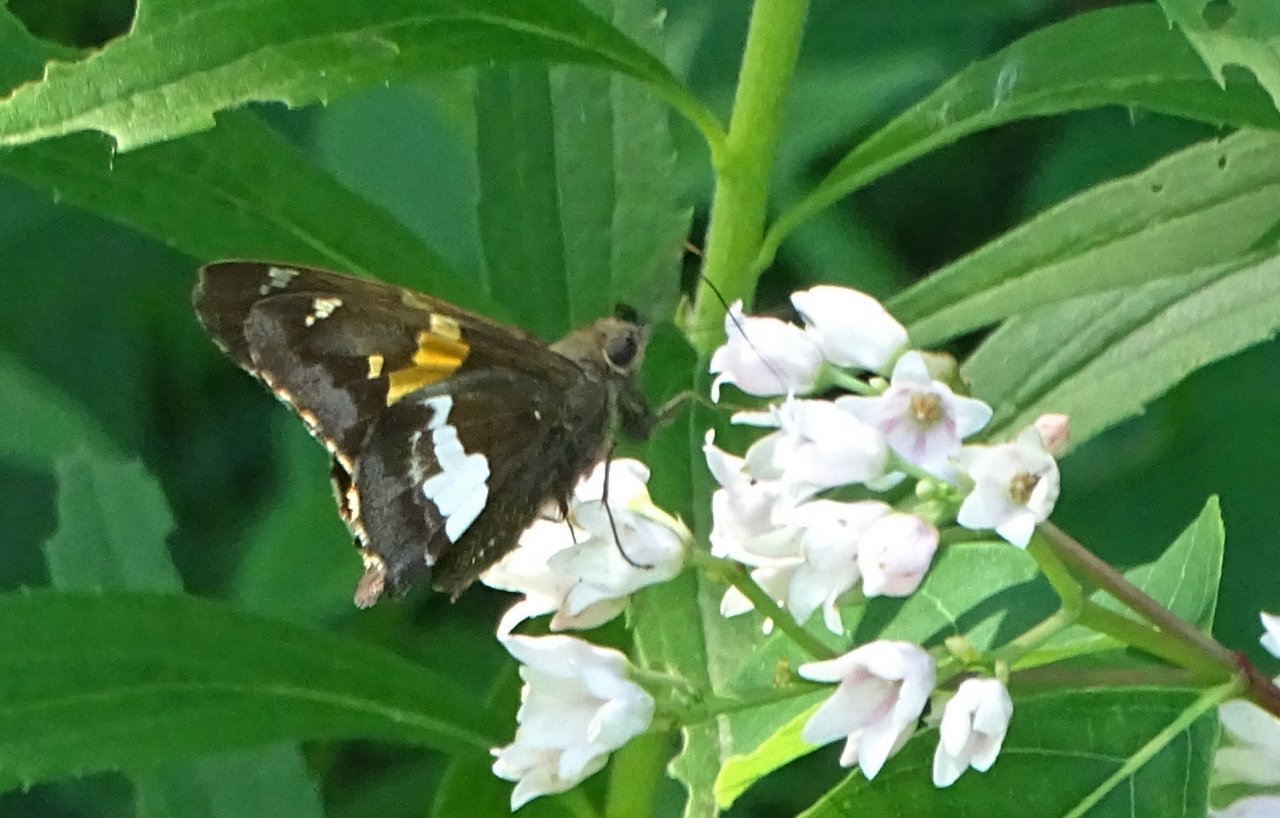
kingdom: Animalia
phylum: Arthropoda
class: Insecta
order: Lepidoptera
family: Hesperiidae
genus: Epargyreus
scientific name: Epargyreus clarus
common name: Silver-spotted Skipper
